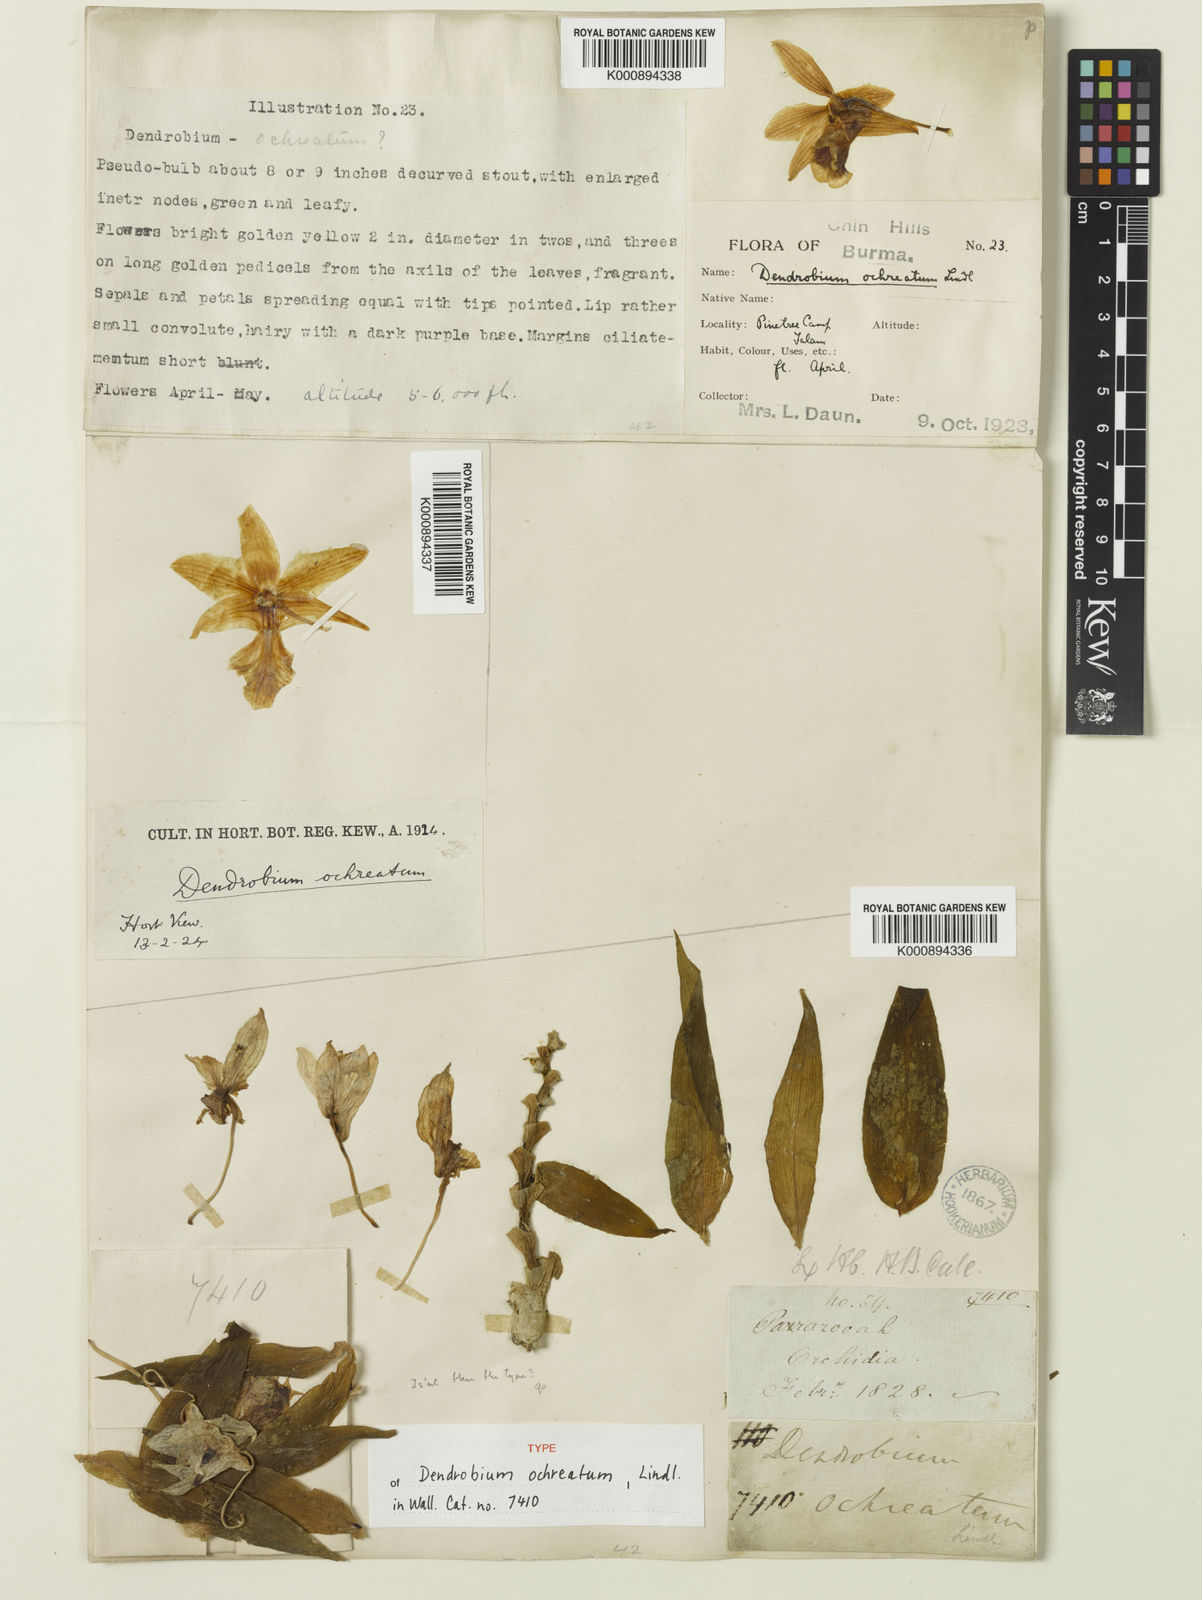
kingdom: Plantae
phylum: Tracheophyta
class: Liliopsida
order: Asparagales
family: Orchidaceae
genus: Dendrobium
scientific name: Dendrobium ochreatum
